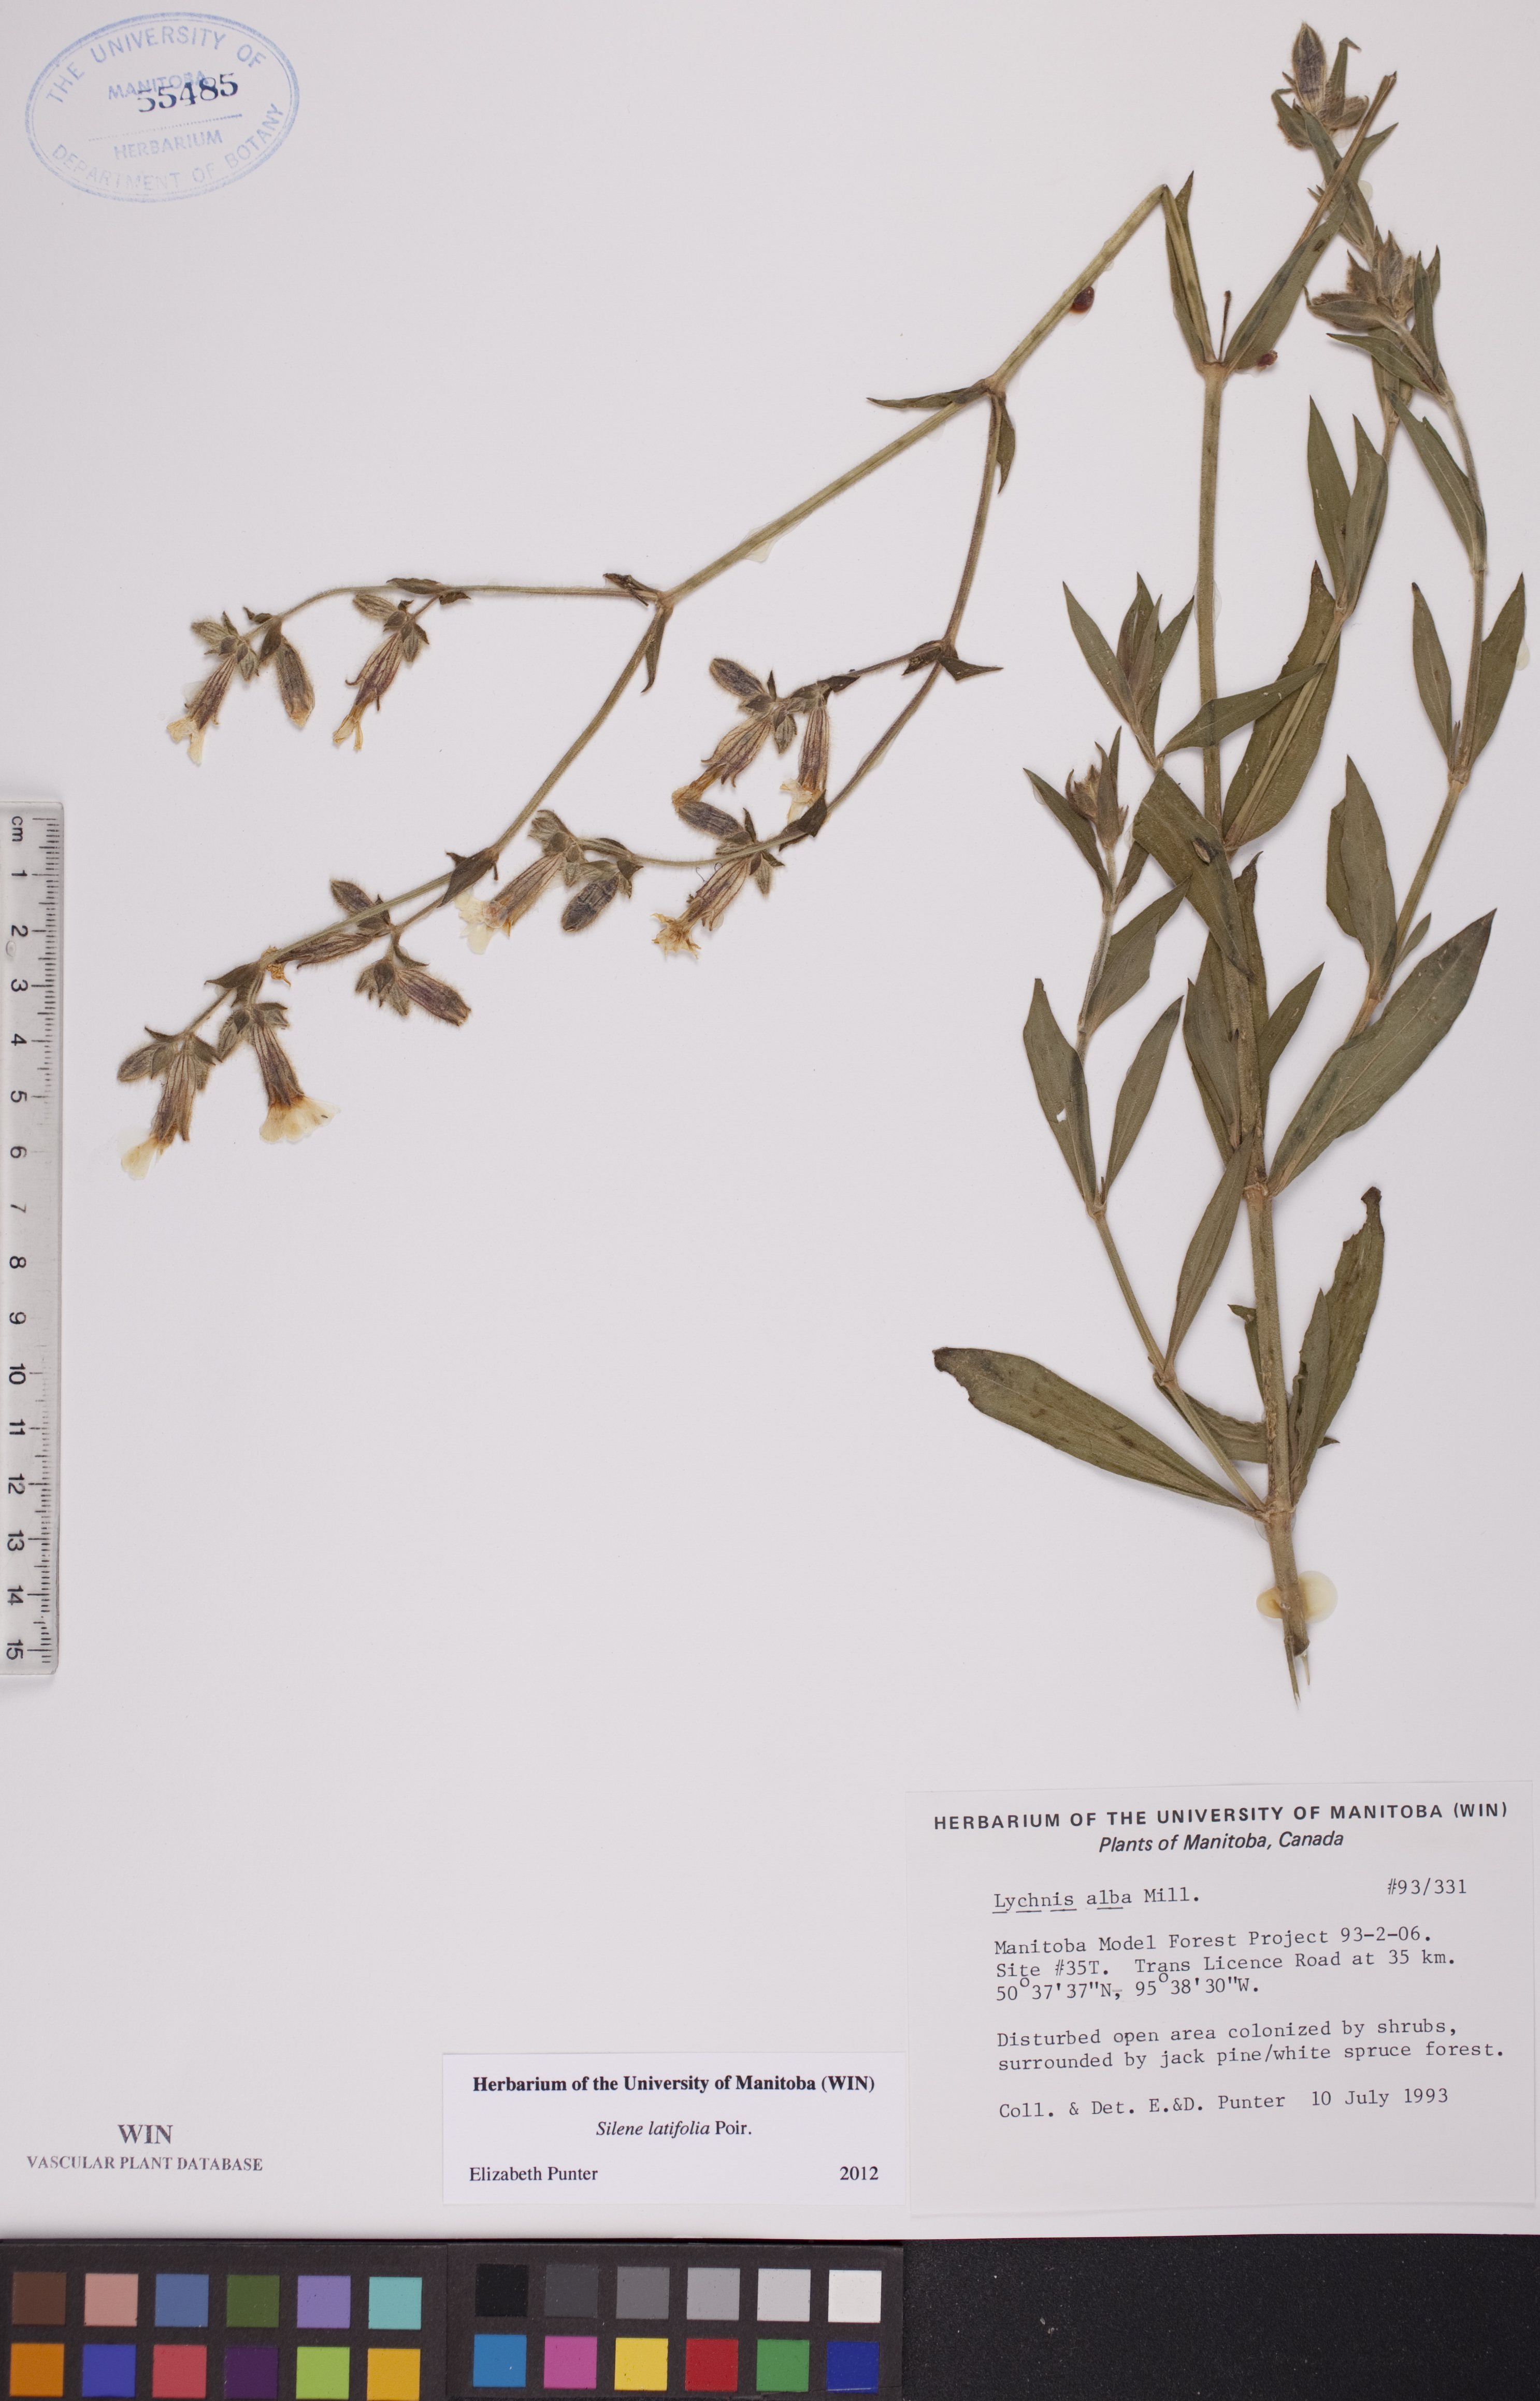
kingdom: Plantae
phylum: Tracheophyta
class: Magnoliopsida
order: Caryophyllales
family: Caryophyllaceae
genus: Silene
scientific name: Silene latifolia
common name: White campion
